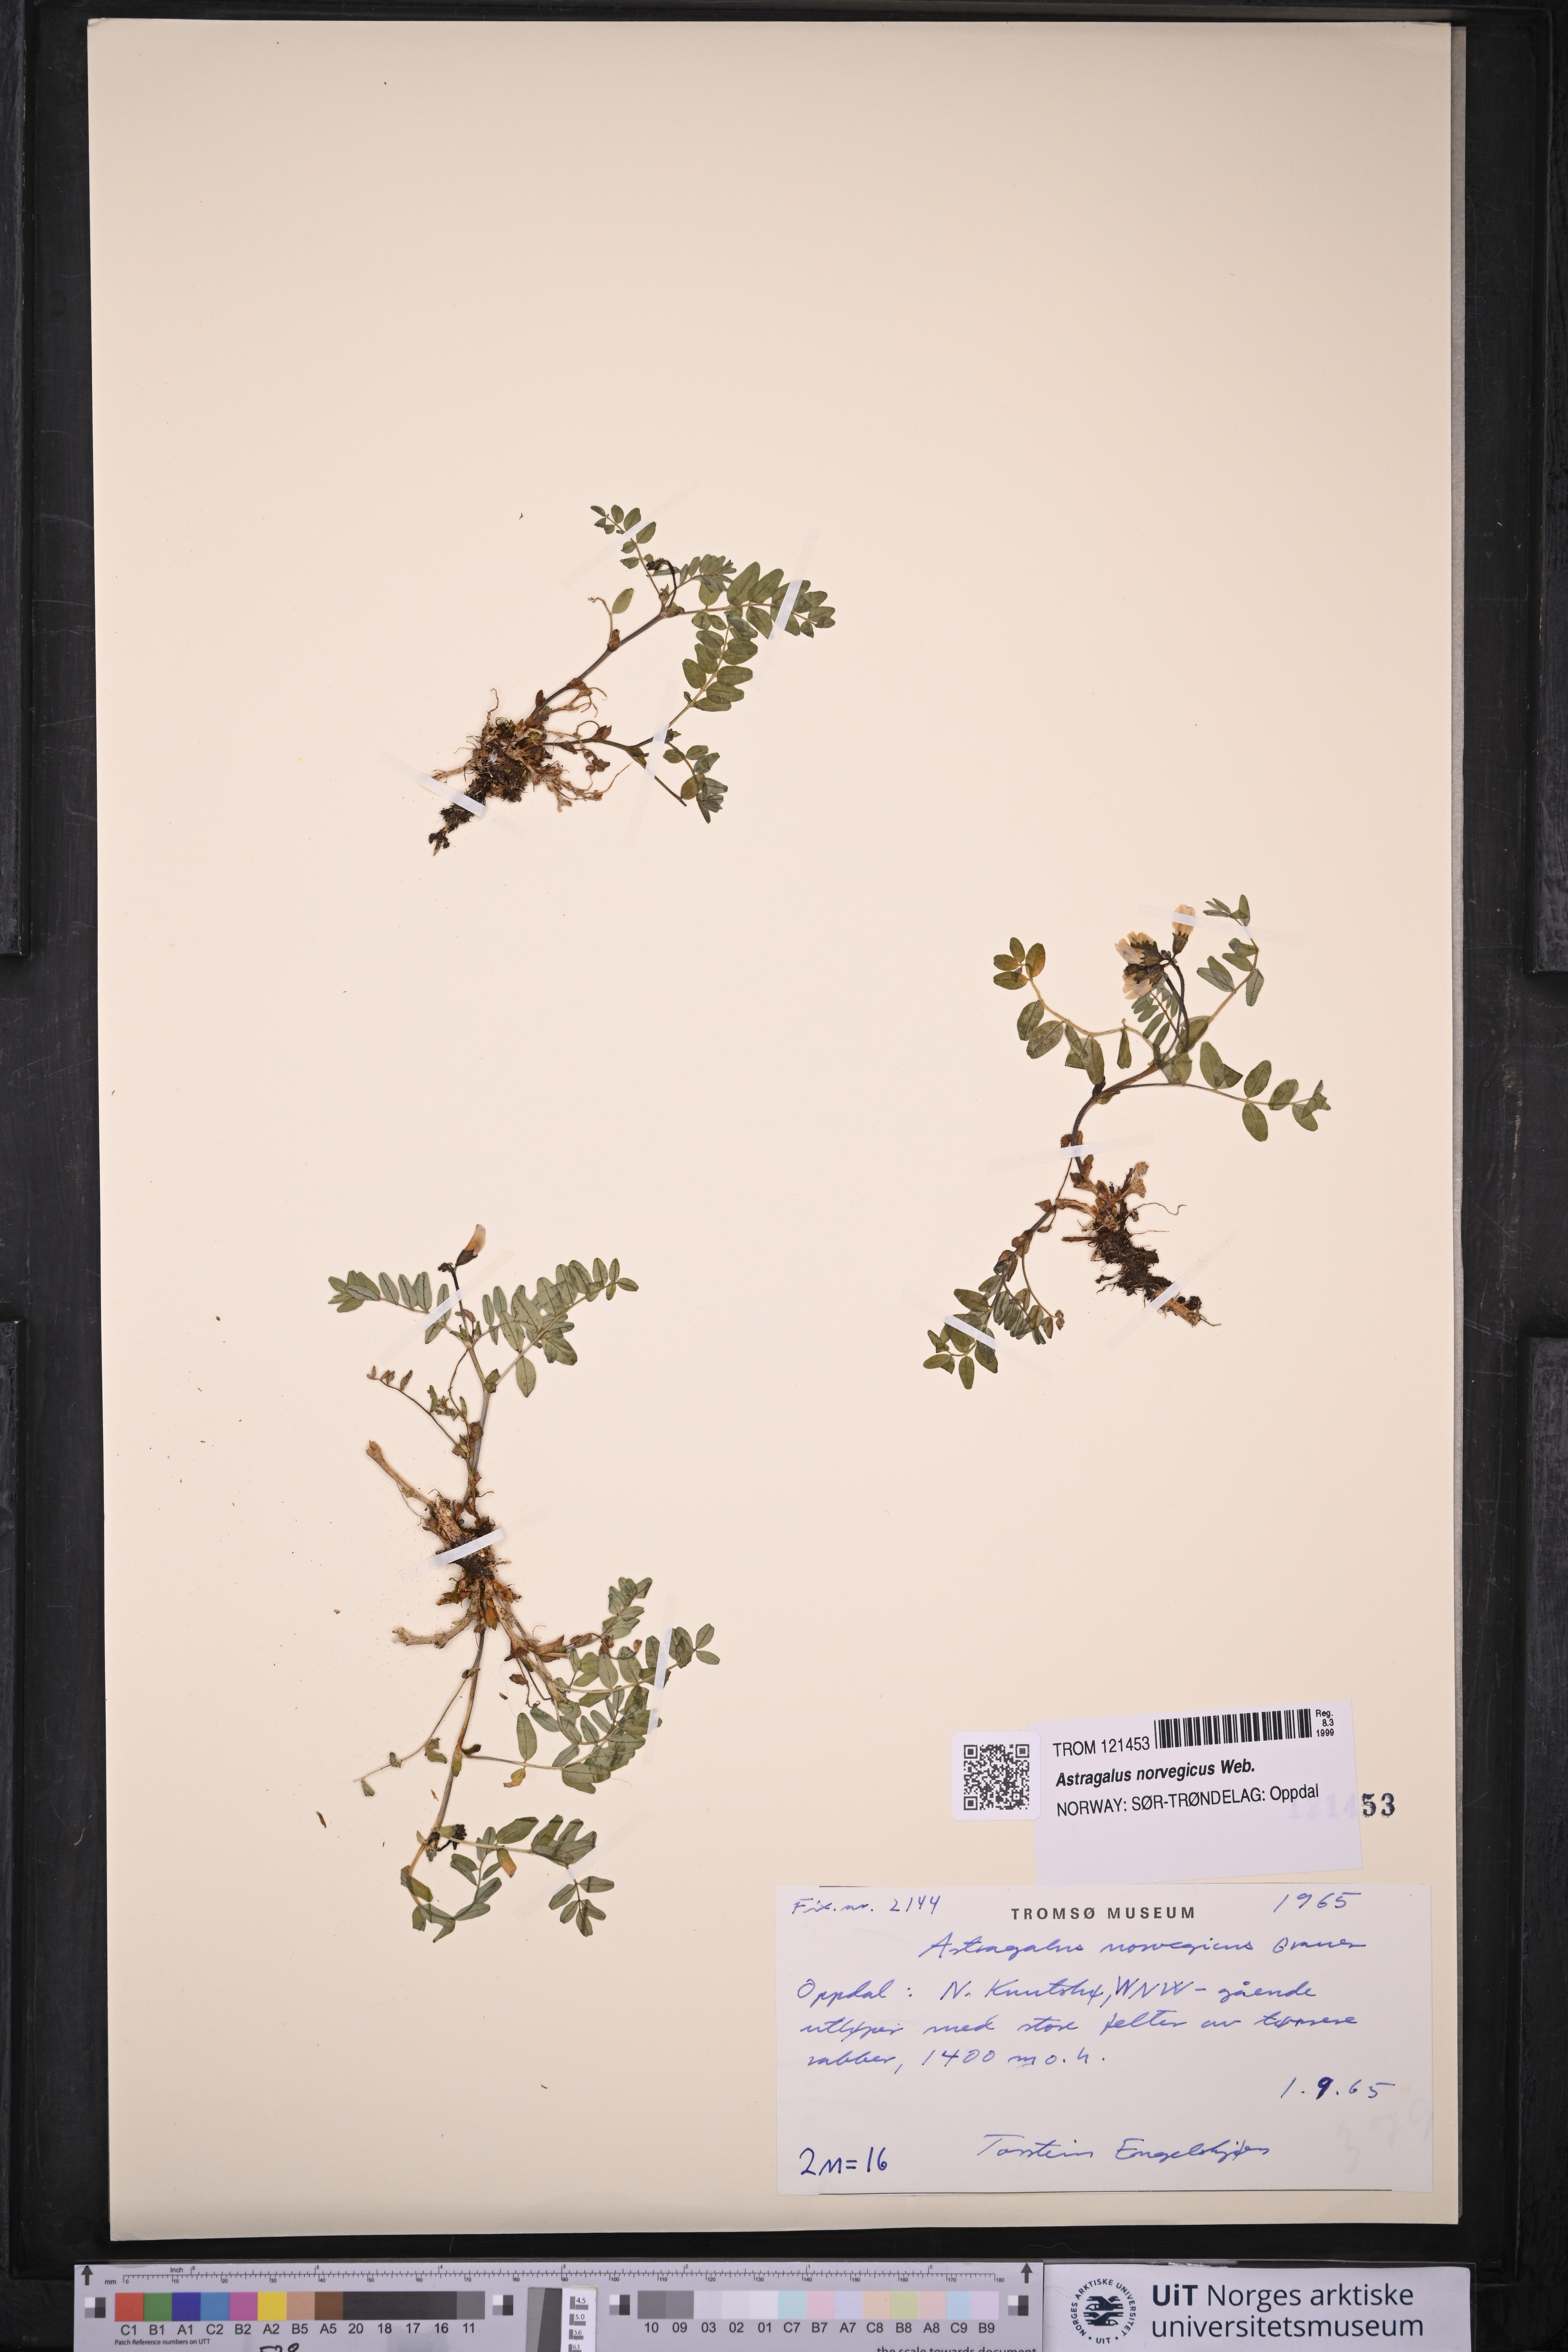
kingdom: Plantae
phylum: Tracheophyta
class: Magnoliopsida
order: Fabales
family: Fabaceae
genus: Astragalus
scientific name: Astragalus norvegicus
